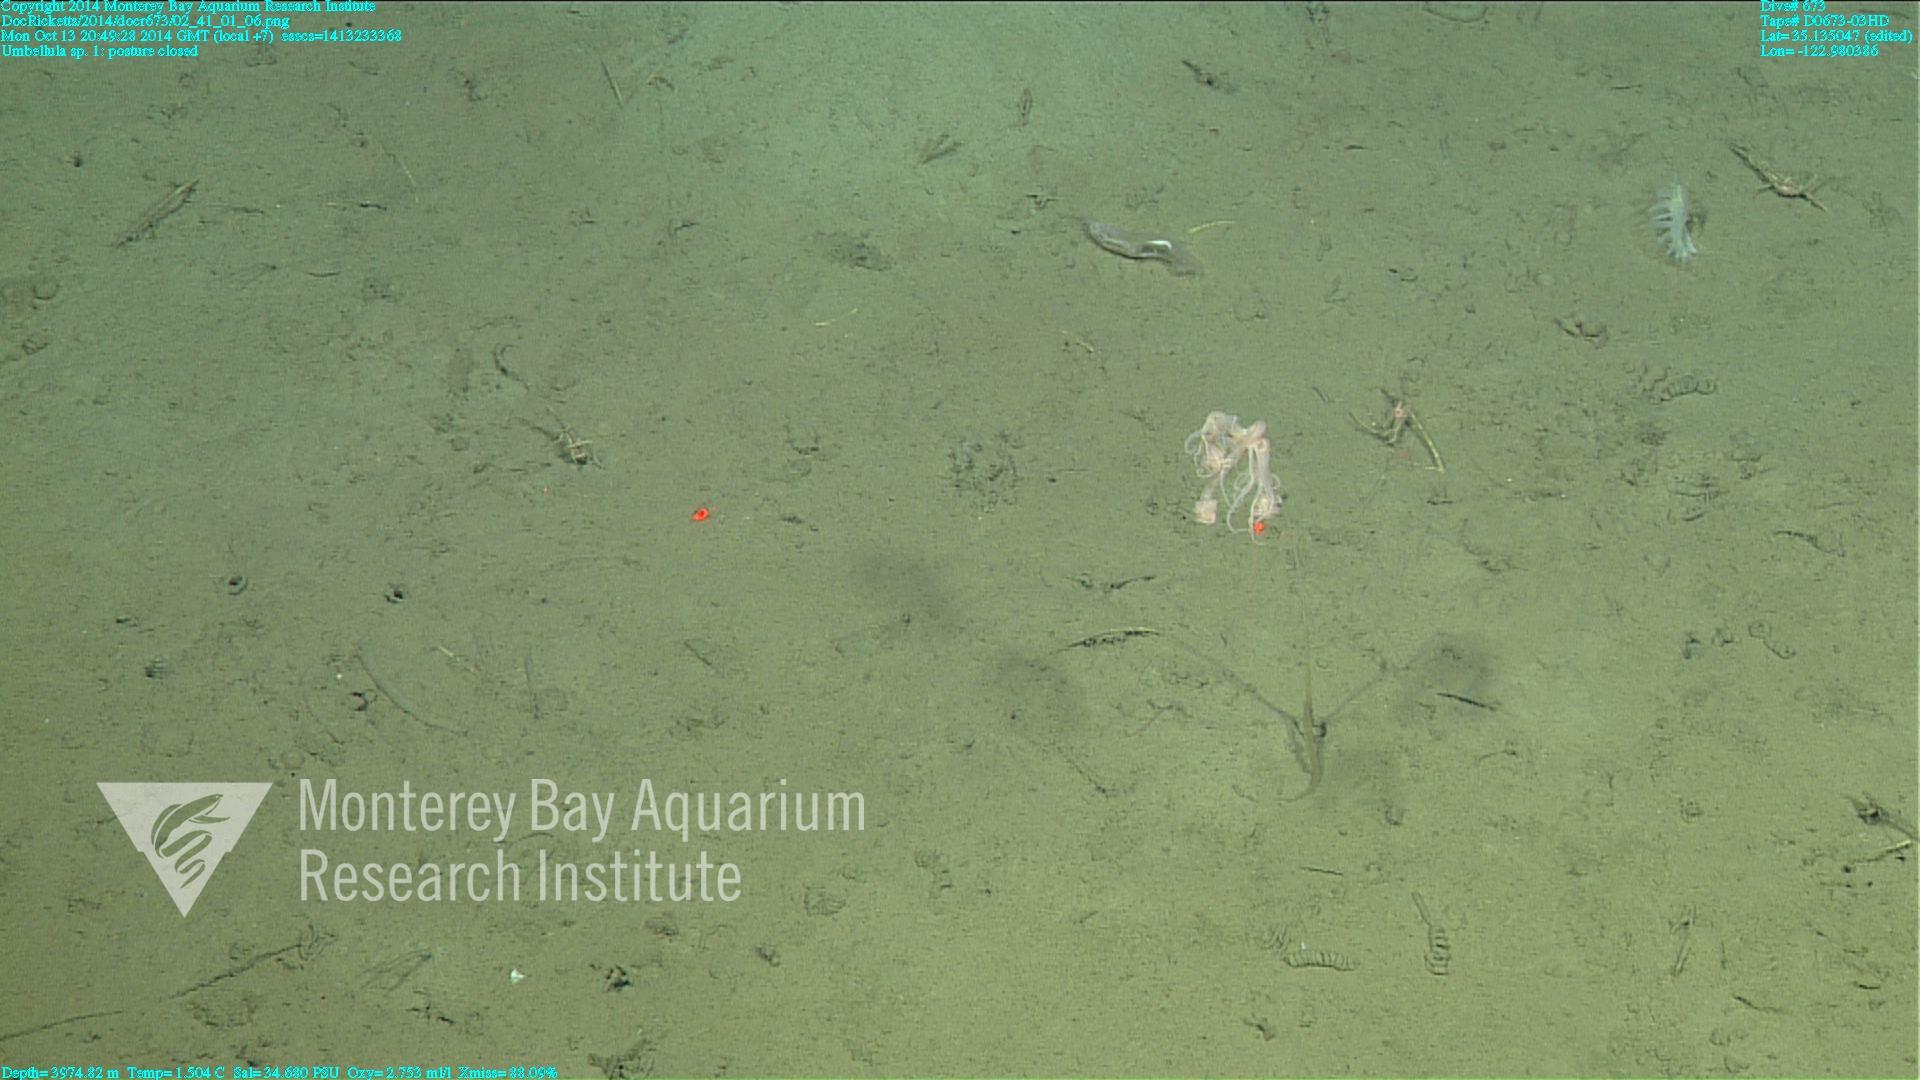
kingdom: Animalia
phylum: Cnidaria
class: Anthozoa
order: Scleralcyonacea
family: Umbellulidae
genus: Umbellula
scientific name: Umbellula
